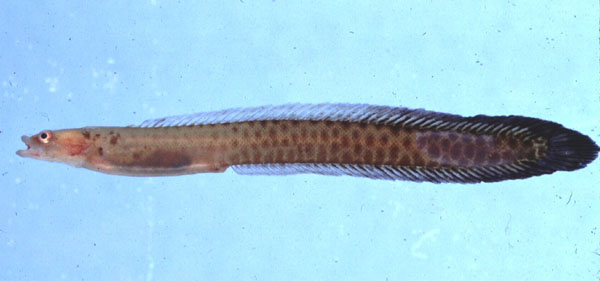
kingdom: Animalia
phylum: Chordata
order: Perciformes
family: Pseudochromidae
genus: Halimuraena
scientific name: Halimuraena shakai
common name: Zulu snakelet
